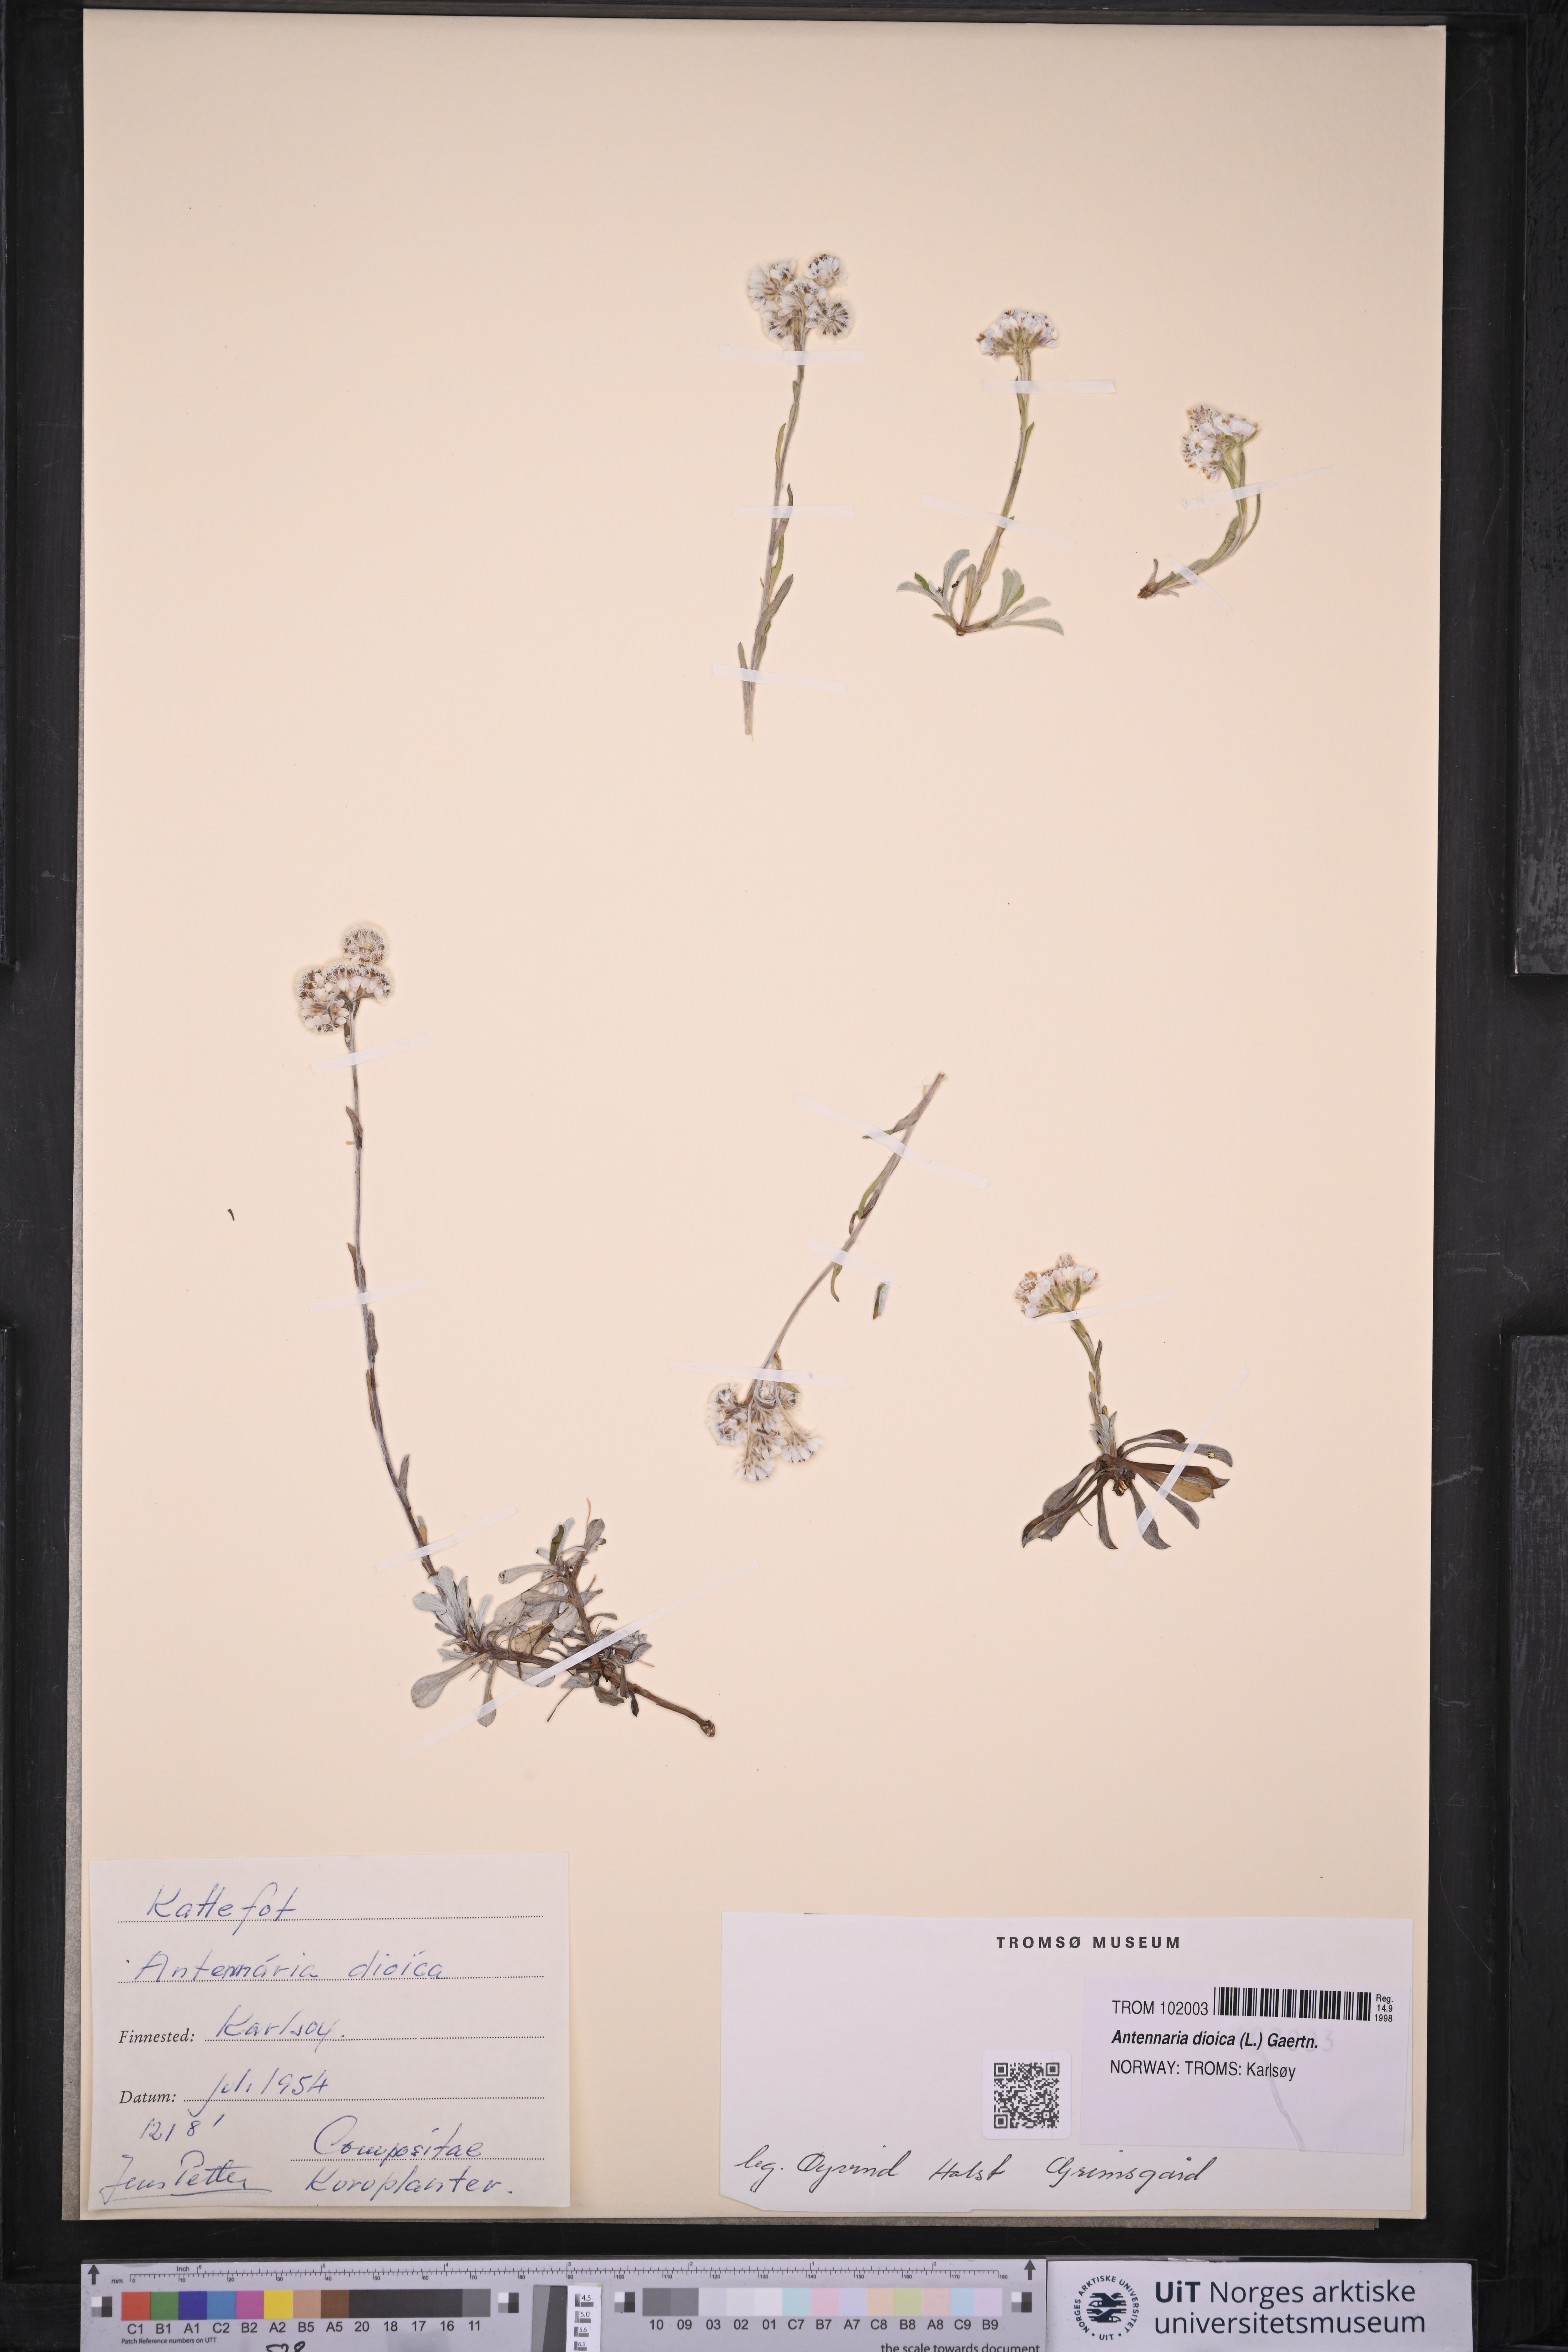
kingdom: Plantae
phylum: Tracheophyta
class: Magnoliopsida
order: Asterales
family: Asteraceae
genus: Antennaria
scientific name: Antennaria dioica
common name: Mountain everlasting
